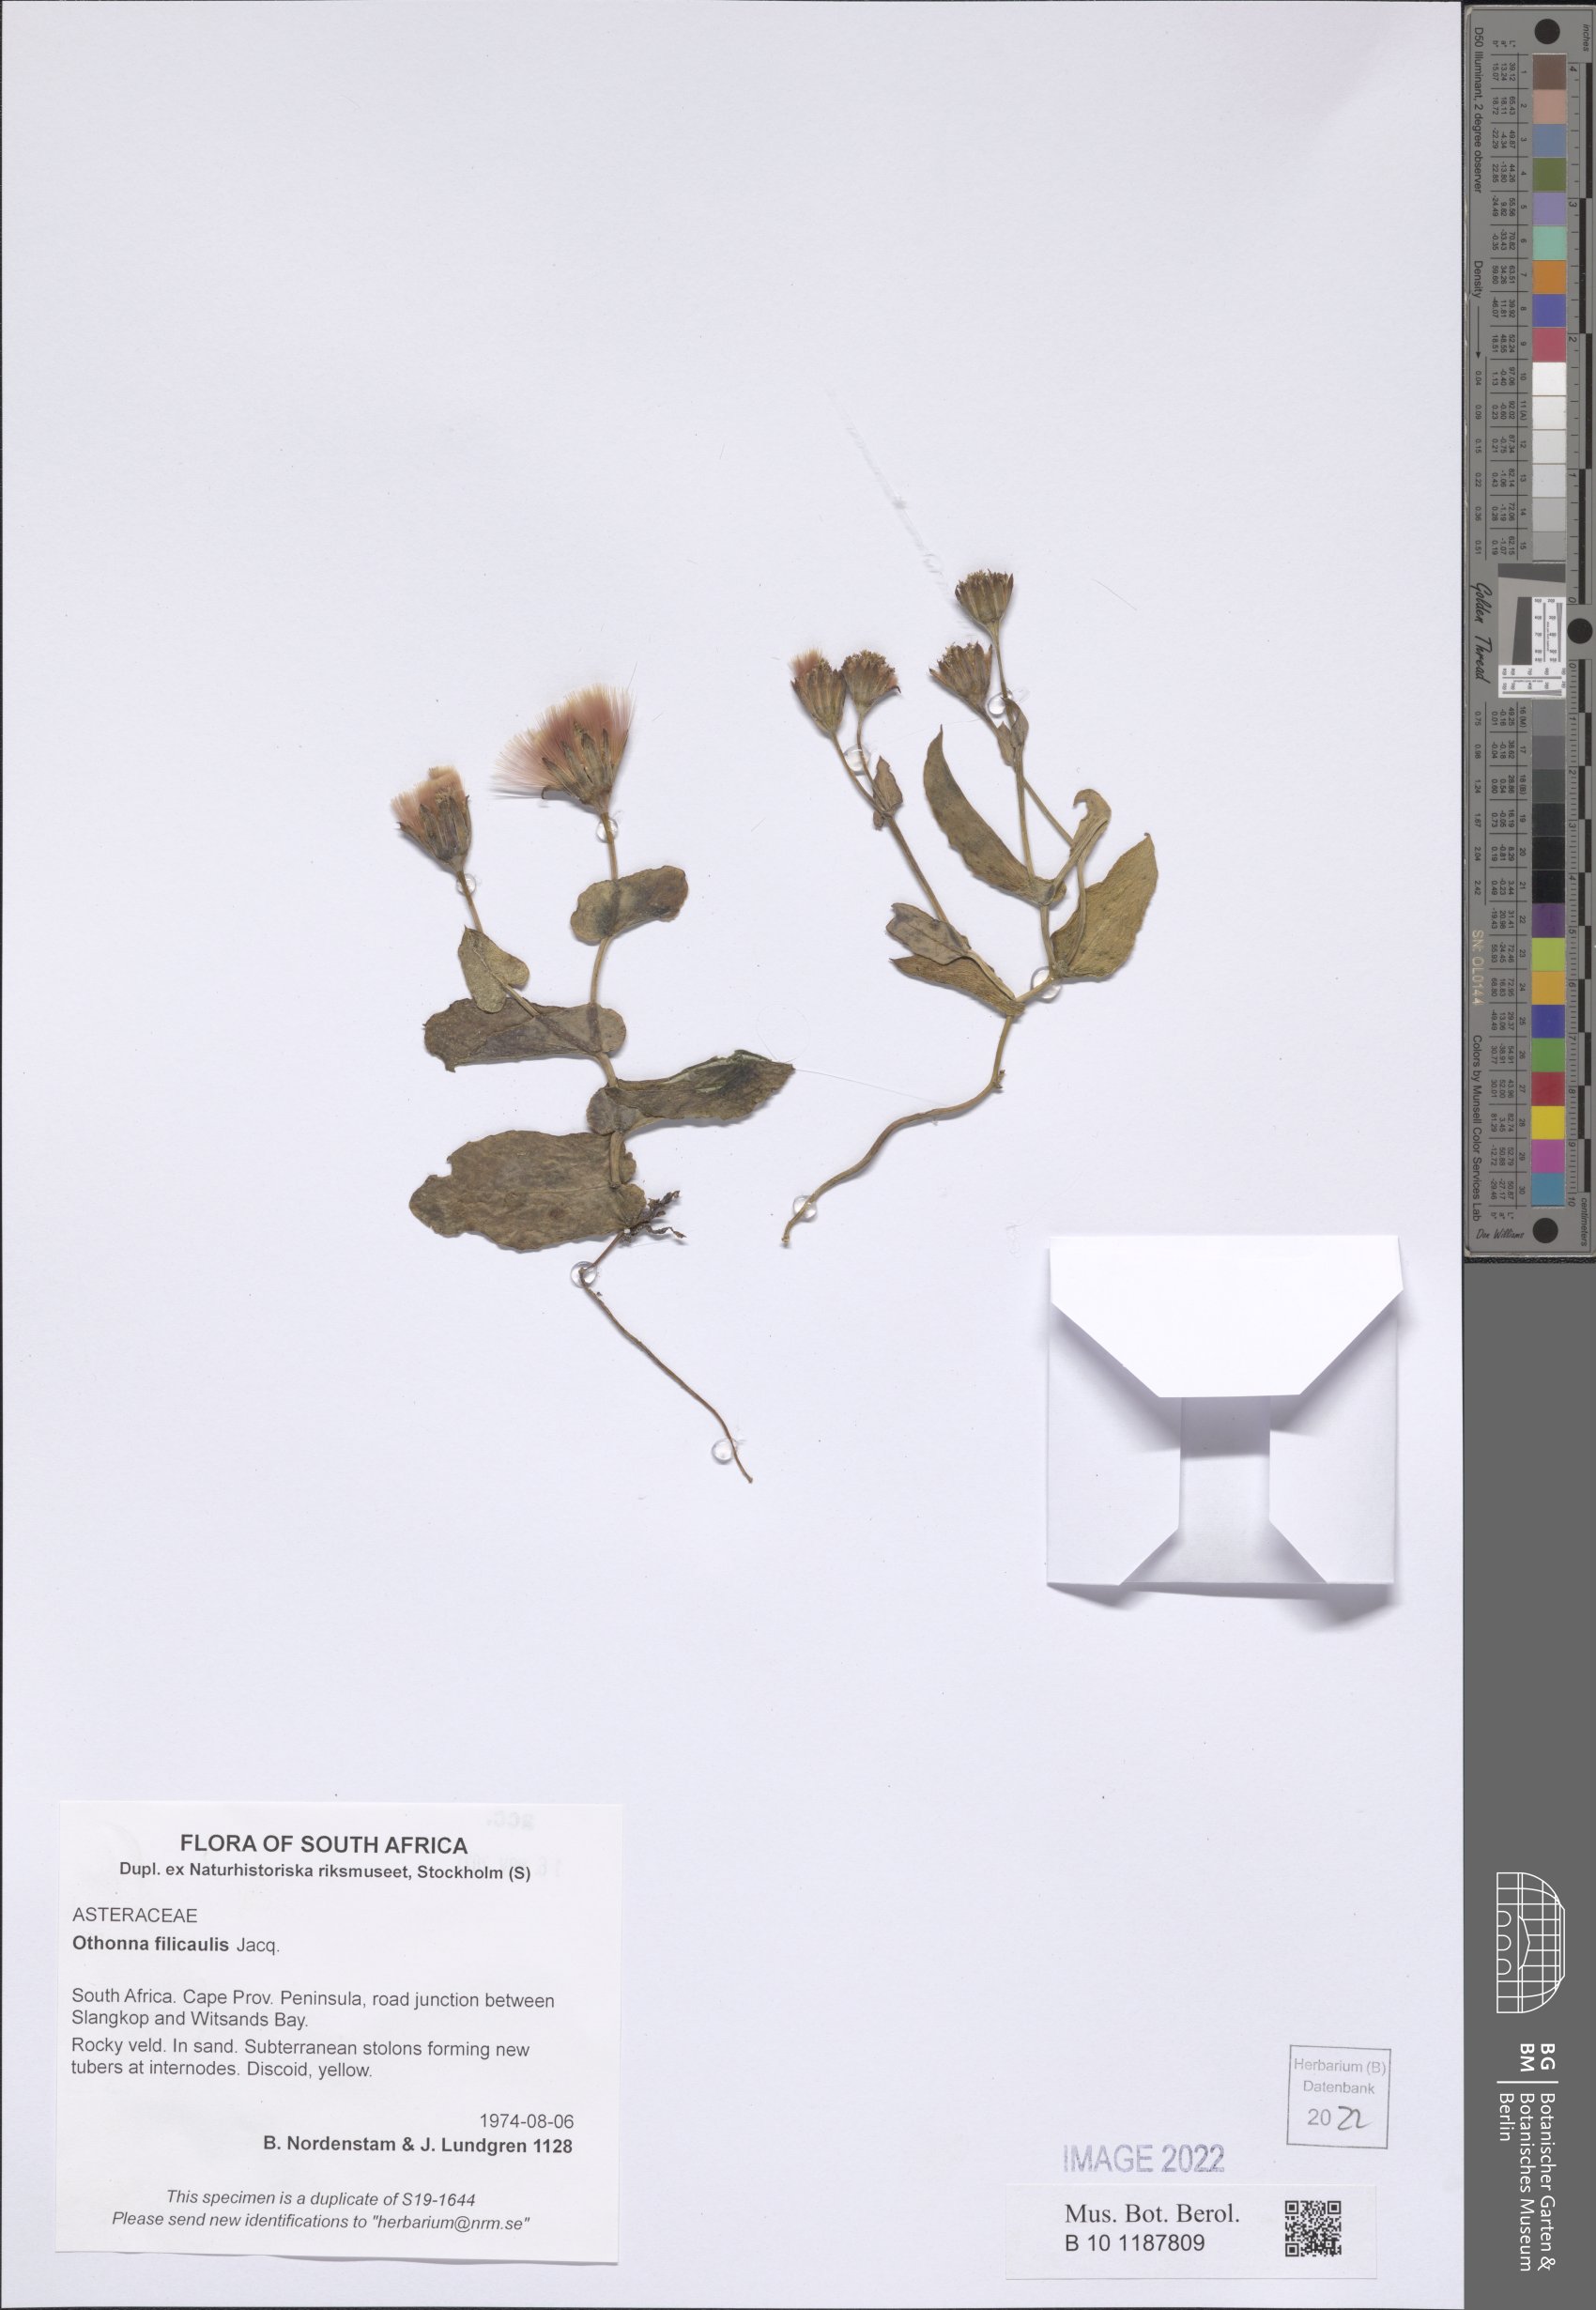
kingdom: Plantae
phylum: Tracheophyta
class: Magnoliopsida
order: Asterales
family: Asteraceae
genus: Othonna
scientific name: Othonna perfoliata
